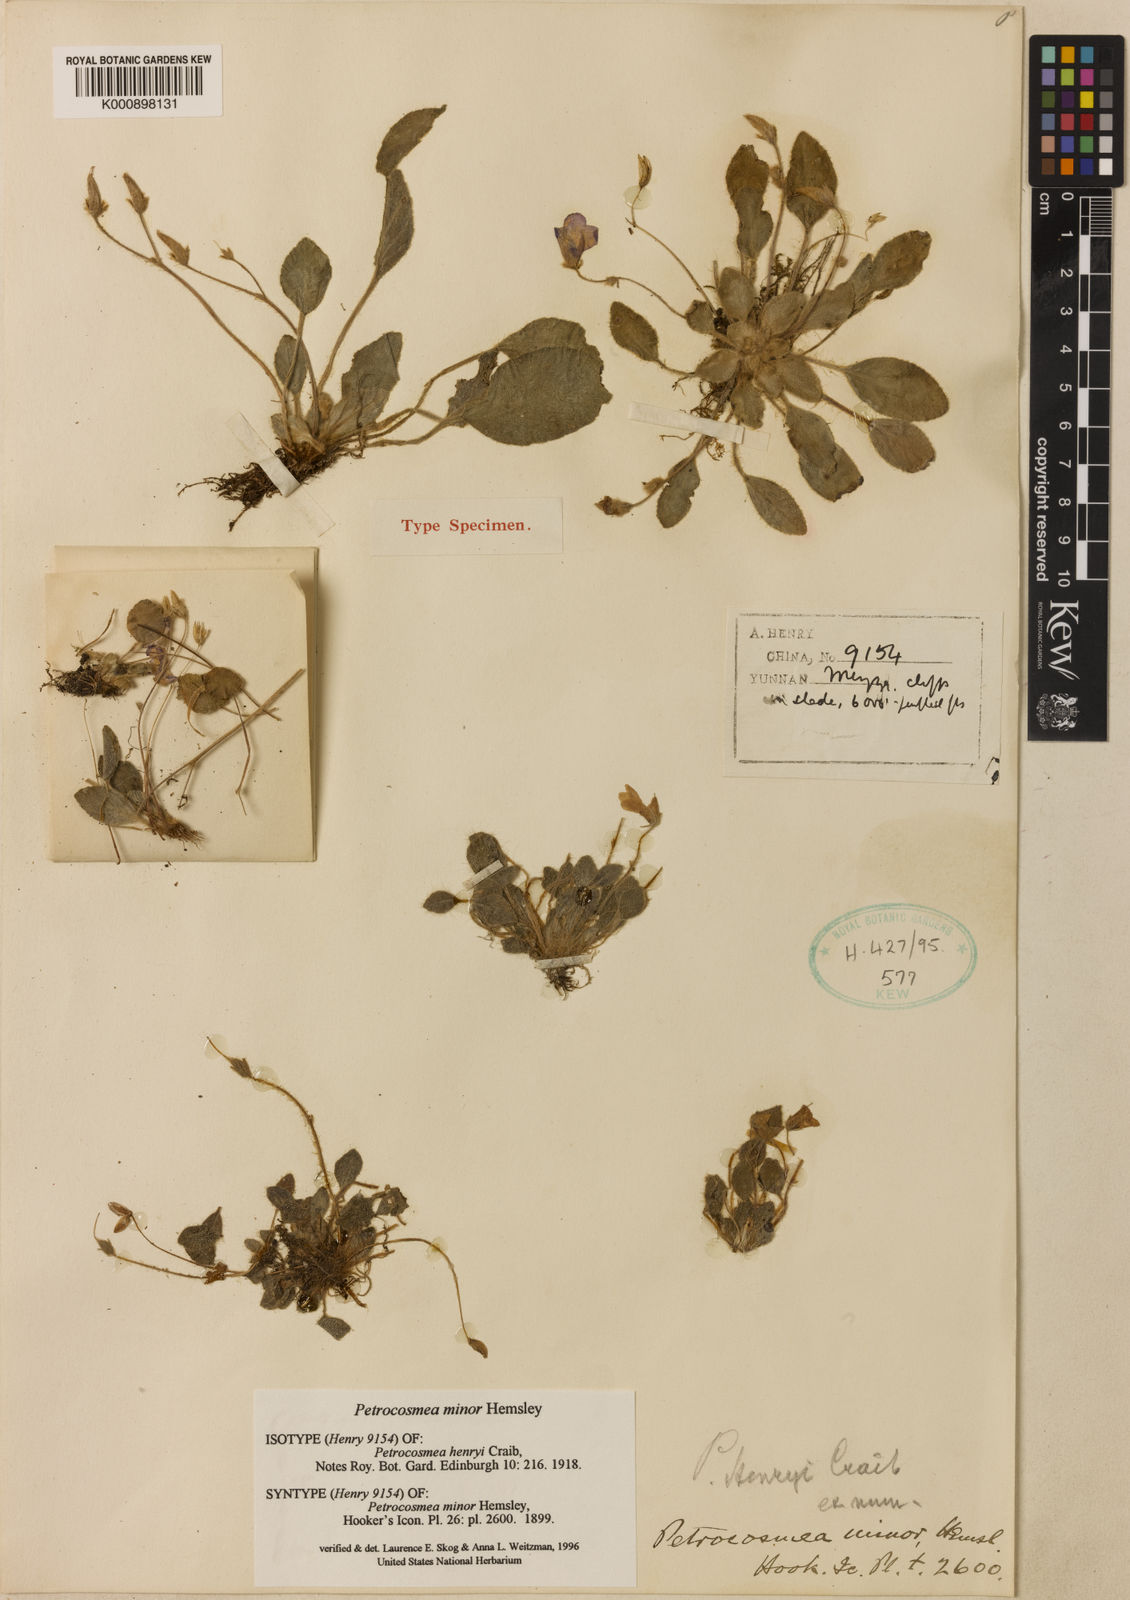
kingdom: Plantae
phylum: Tracheophyta
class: Magnoliopsida
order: Lamiales
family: Gesneriaceae
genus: Petrocosmea
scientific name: Petrocosmea minor
